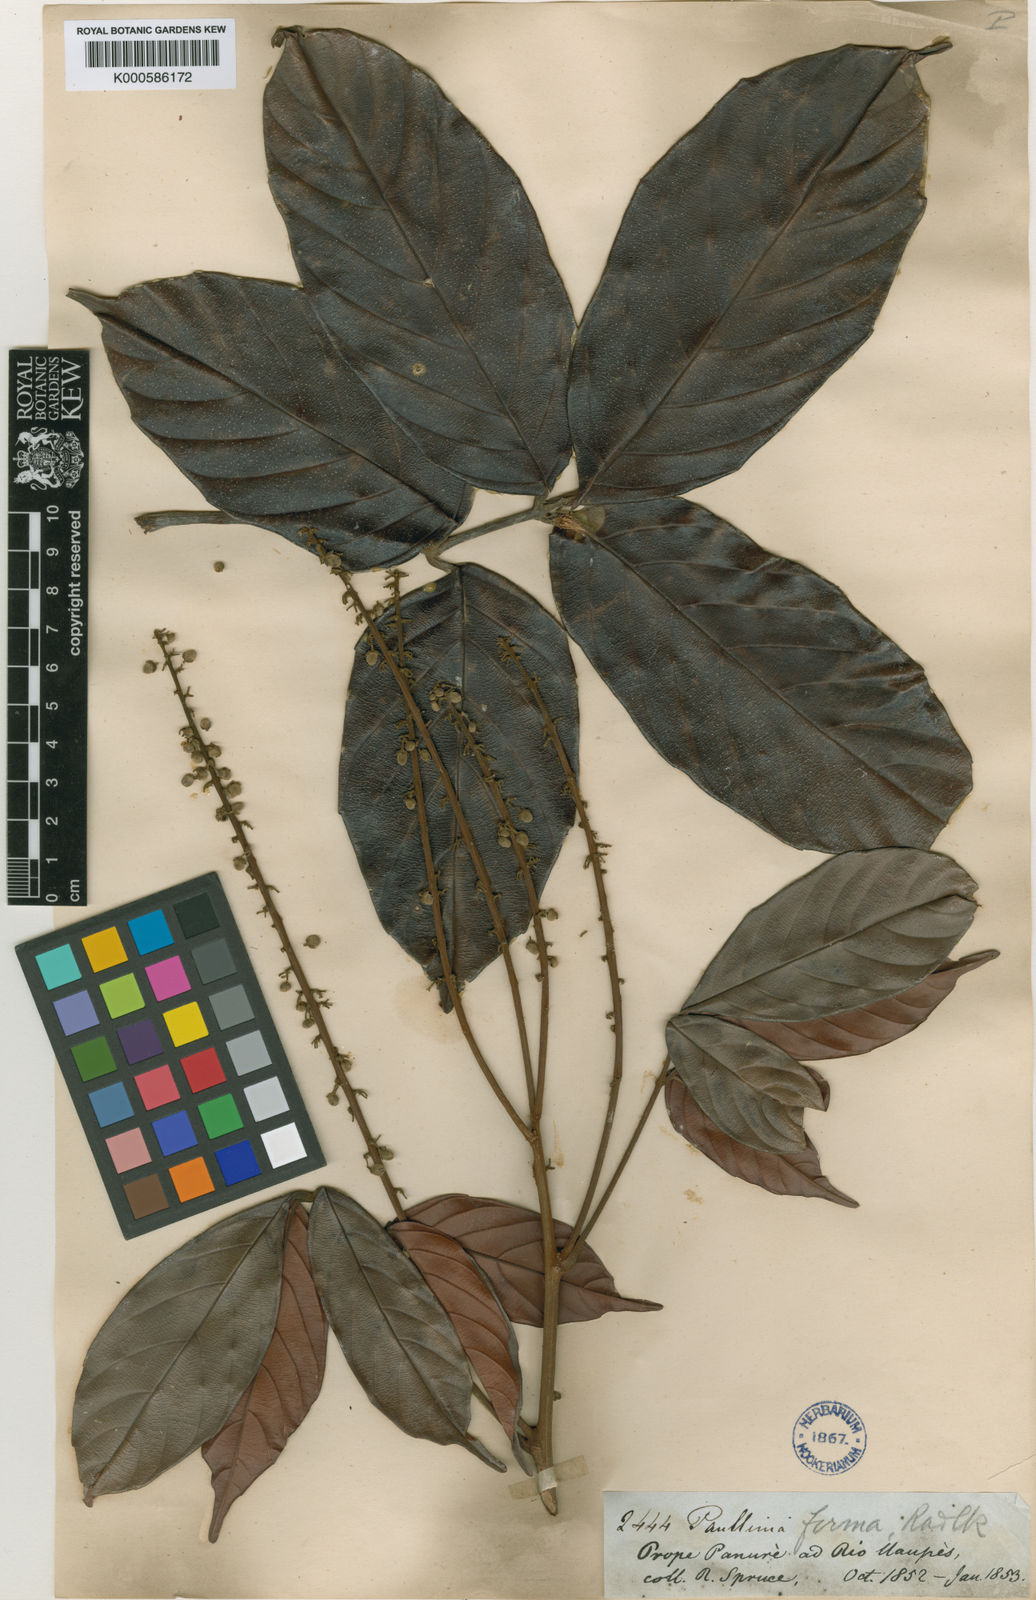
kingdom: Plantae
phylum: Tracheophyta
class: Magnoliopsida
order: Sapindales
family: Sapindaceae
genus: Paullinia
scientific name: Paullinia firma
